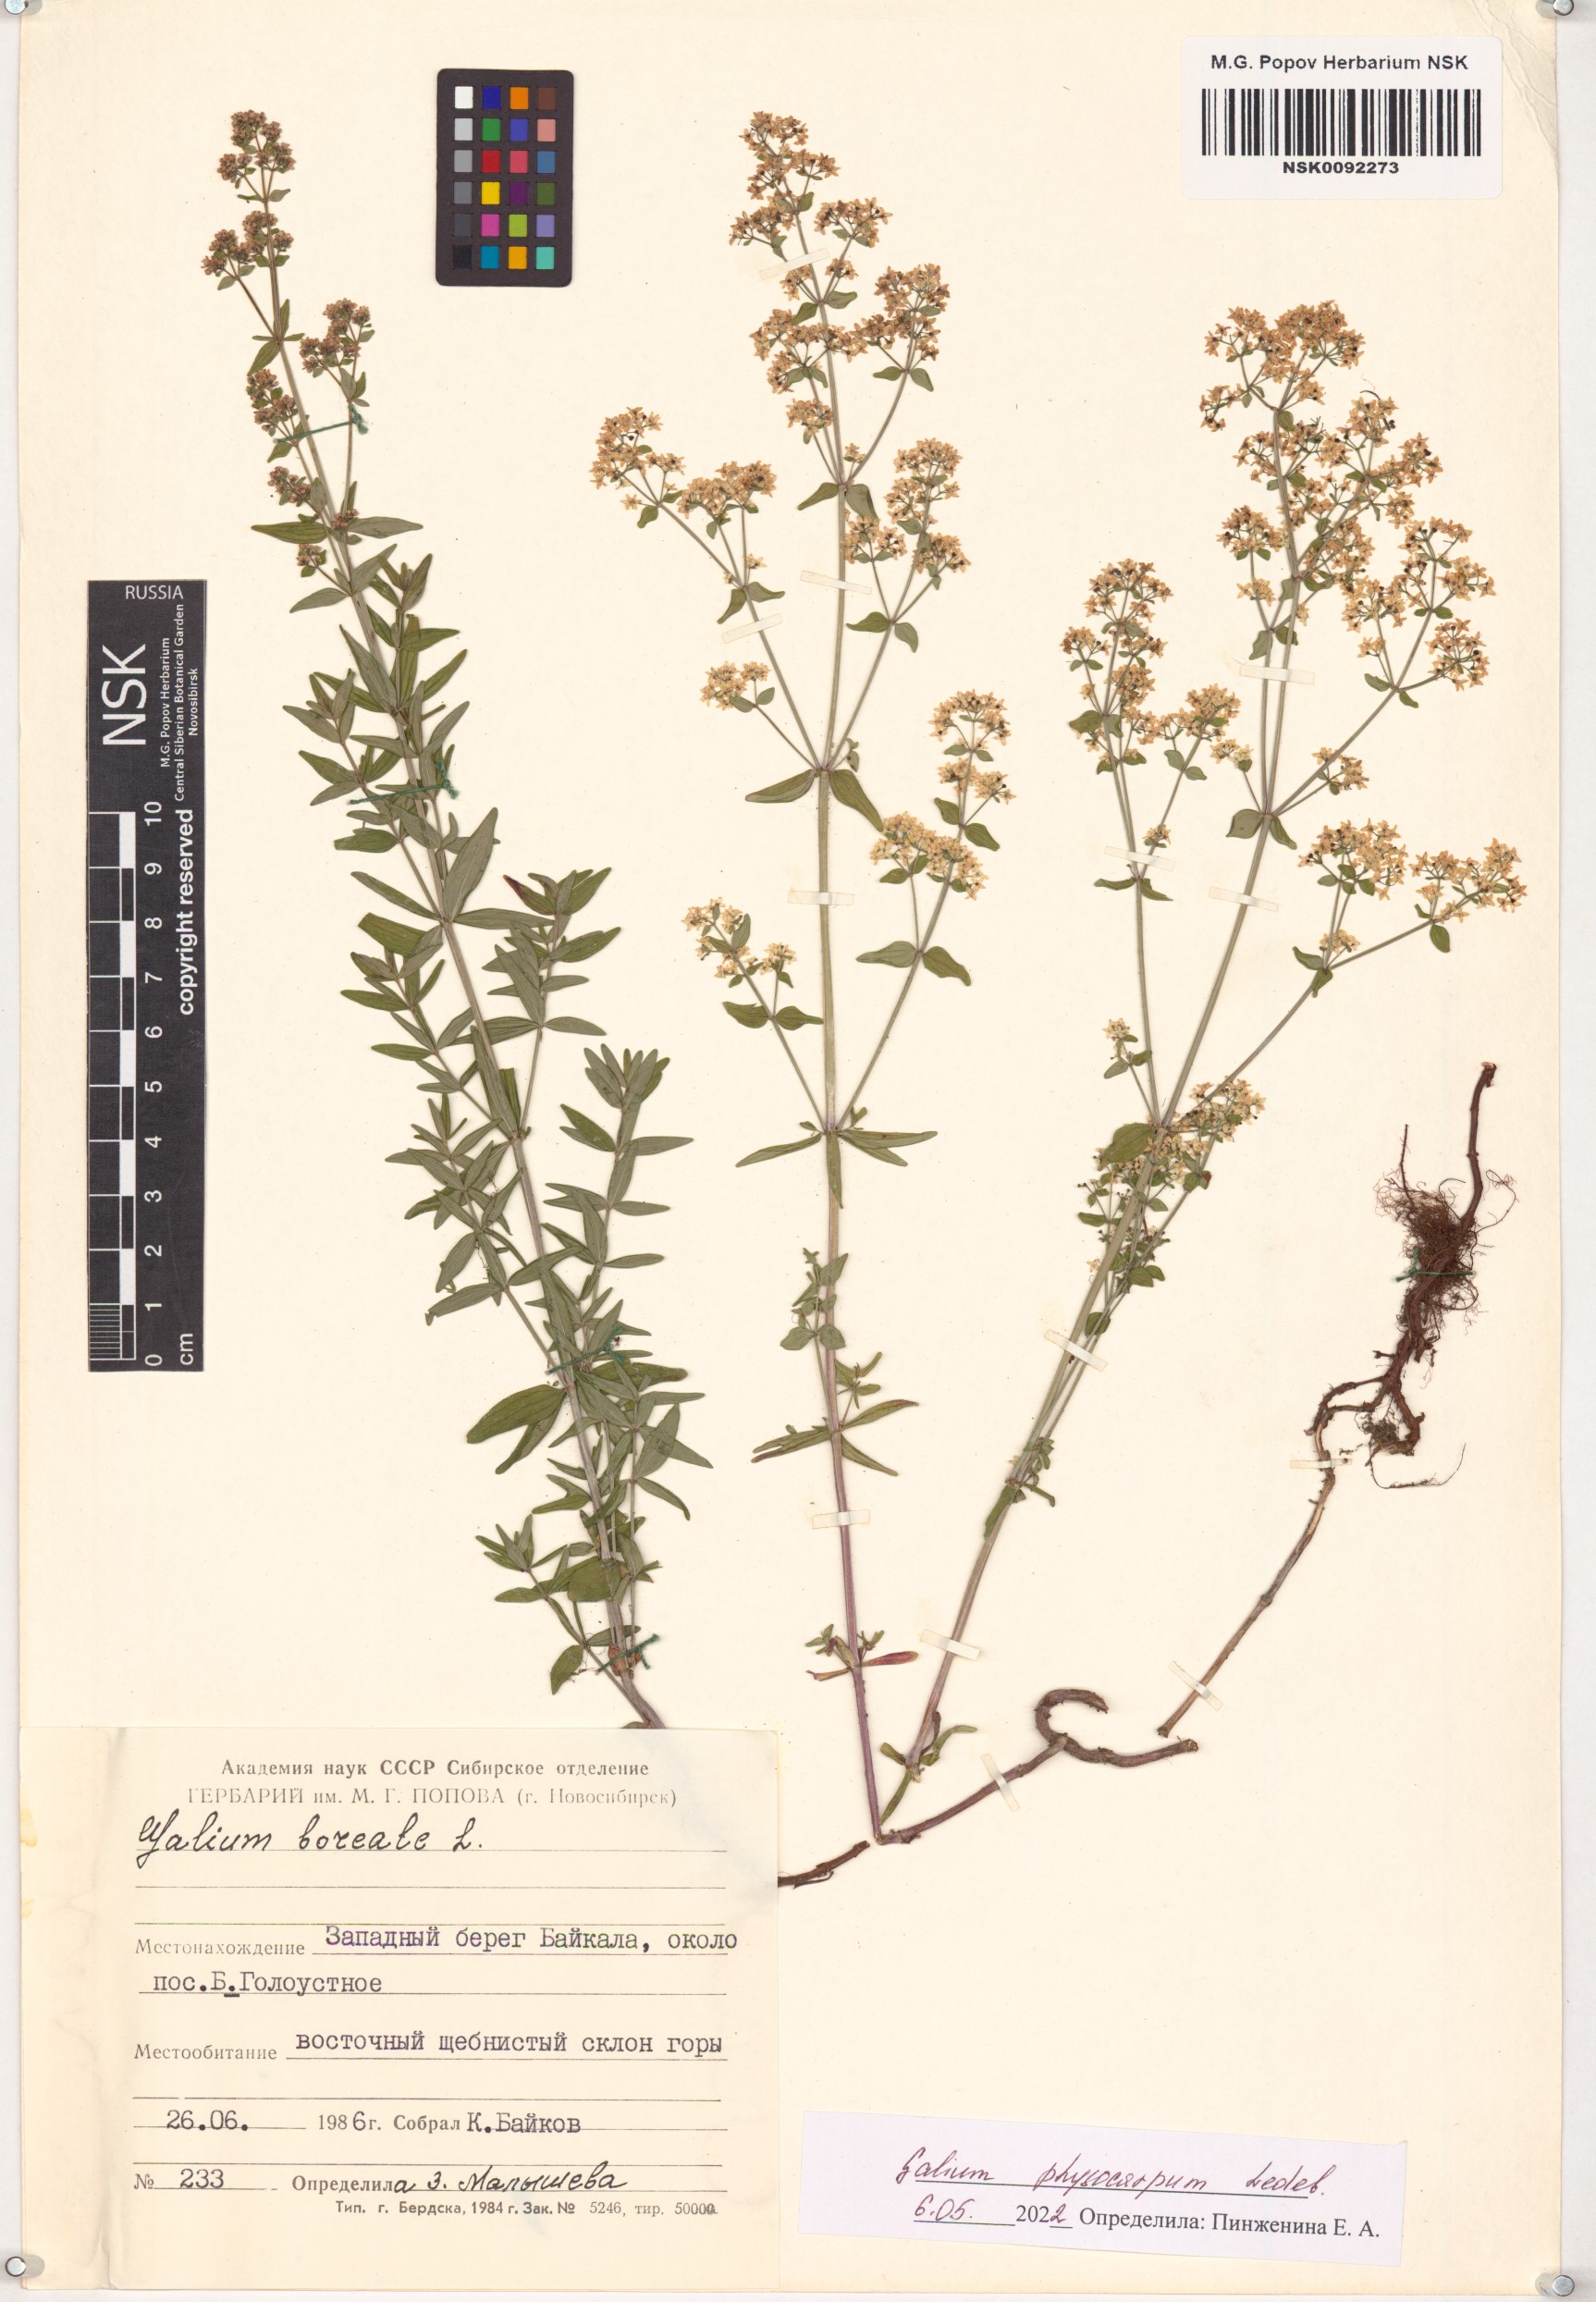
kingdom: Plantae
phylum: Tracheophyta
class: Magnoliopsida
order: Gentianales
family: Rubiaceae
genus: Galium
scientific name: Galium rubioides
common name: European bedstraw
